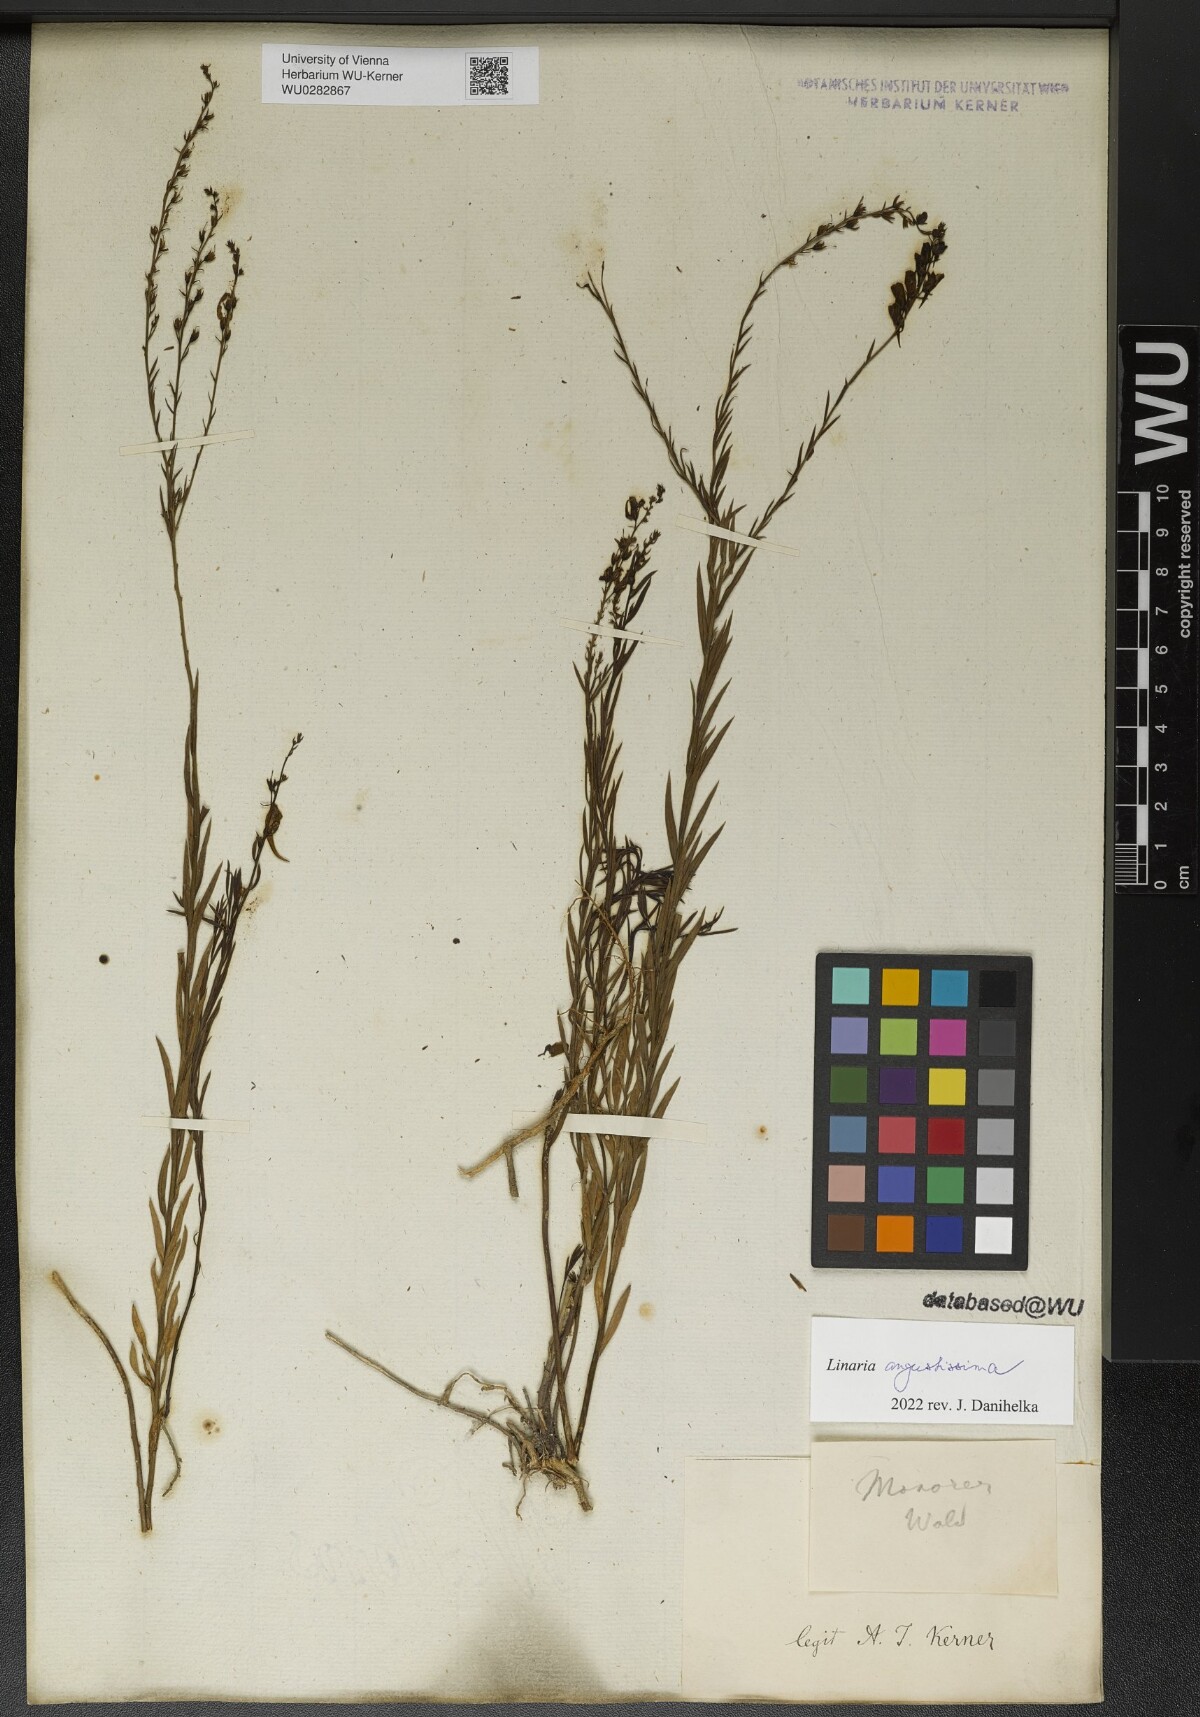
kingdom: Plantae
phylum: Tracheophyta
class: Magnoliopsida
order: Lamiales
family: Plantaginaceae
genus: Linaria
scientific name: Linaria angustissima
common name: Italian toadflax
